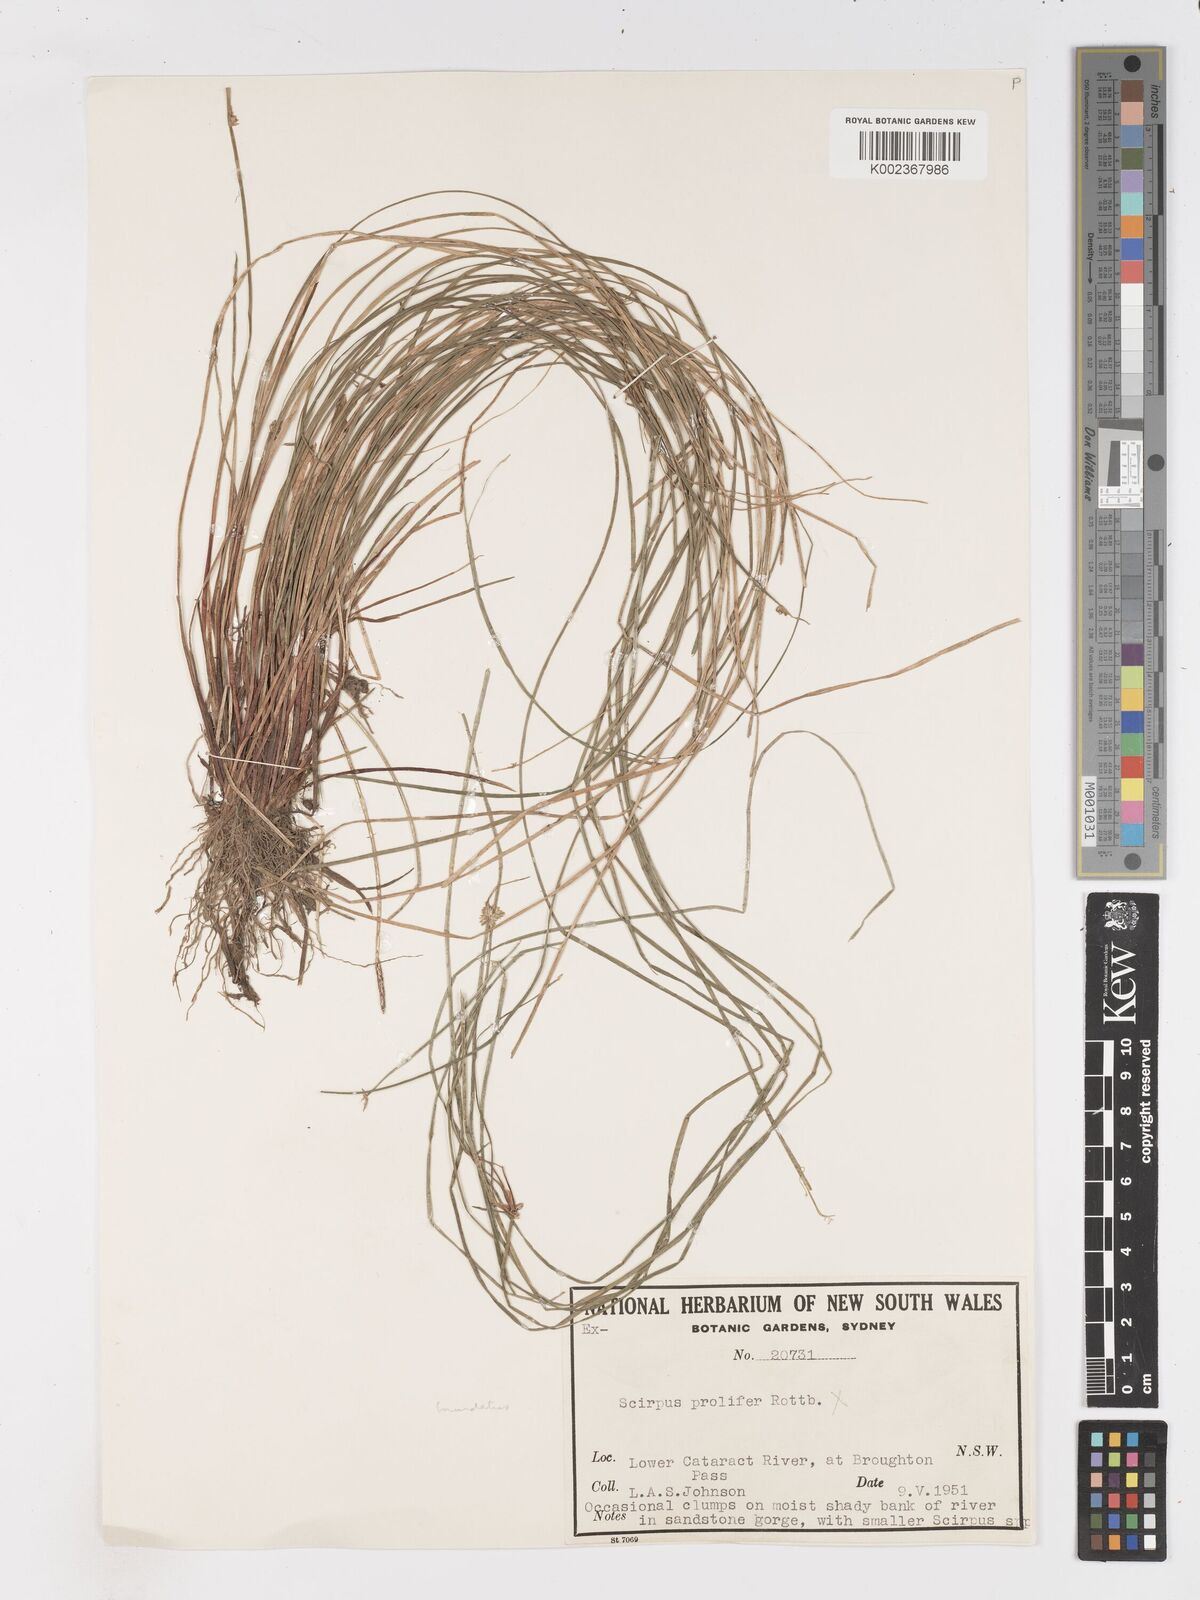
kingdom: Plantae
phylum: Tracheophyta
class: Liliopsida
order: Poales
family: Cyperaceae
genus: Isolepis
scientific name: Isolepis inundata
